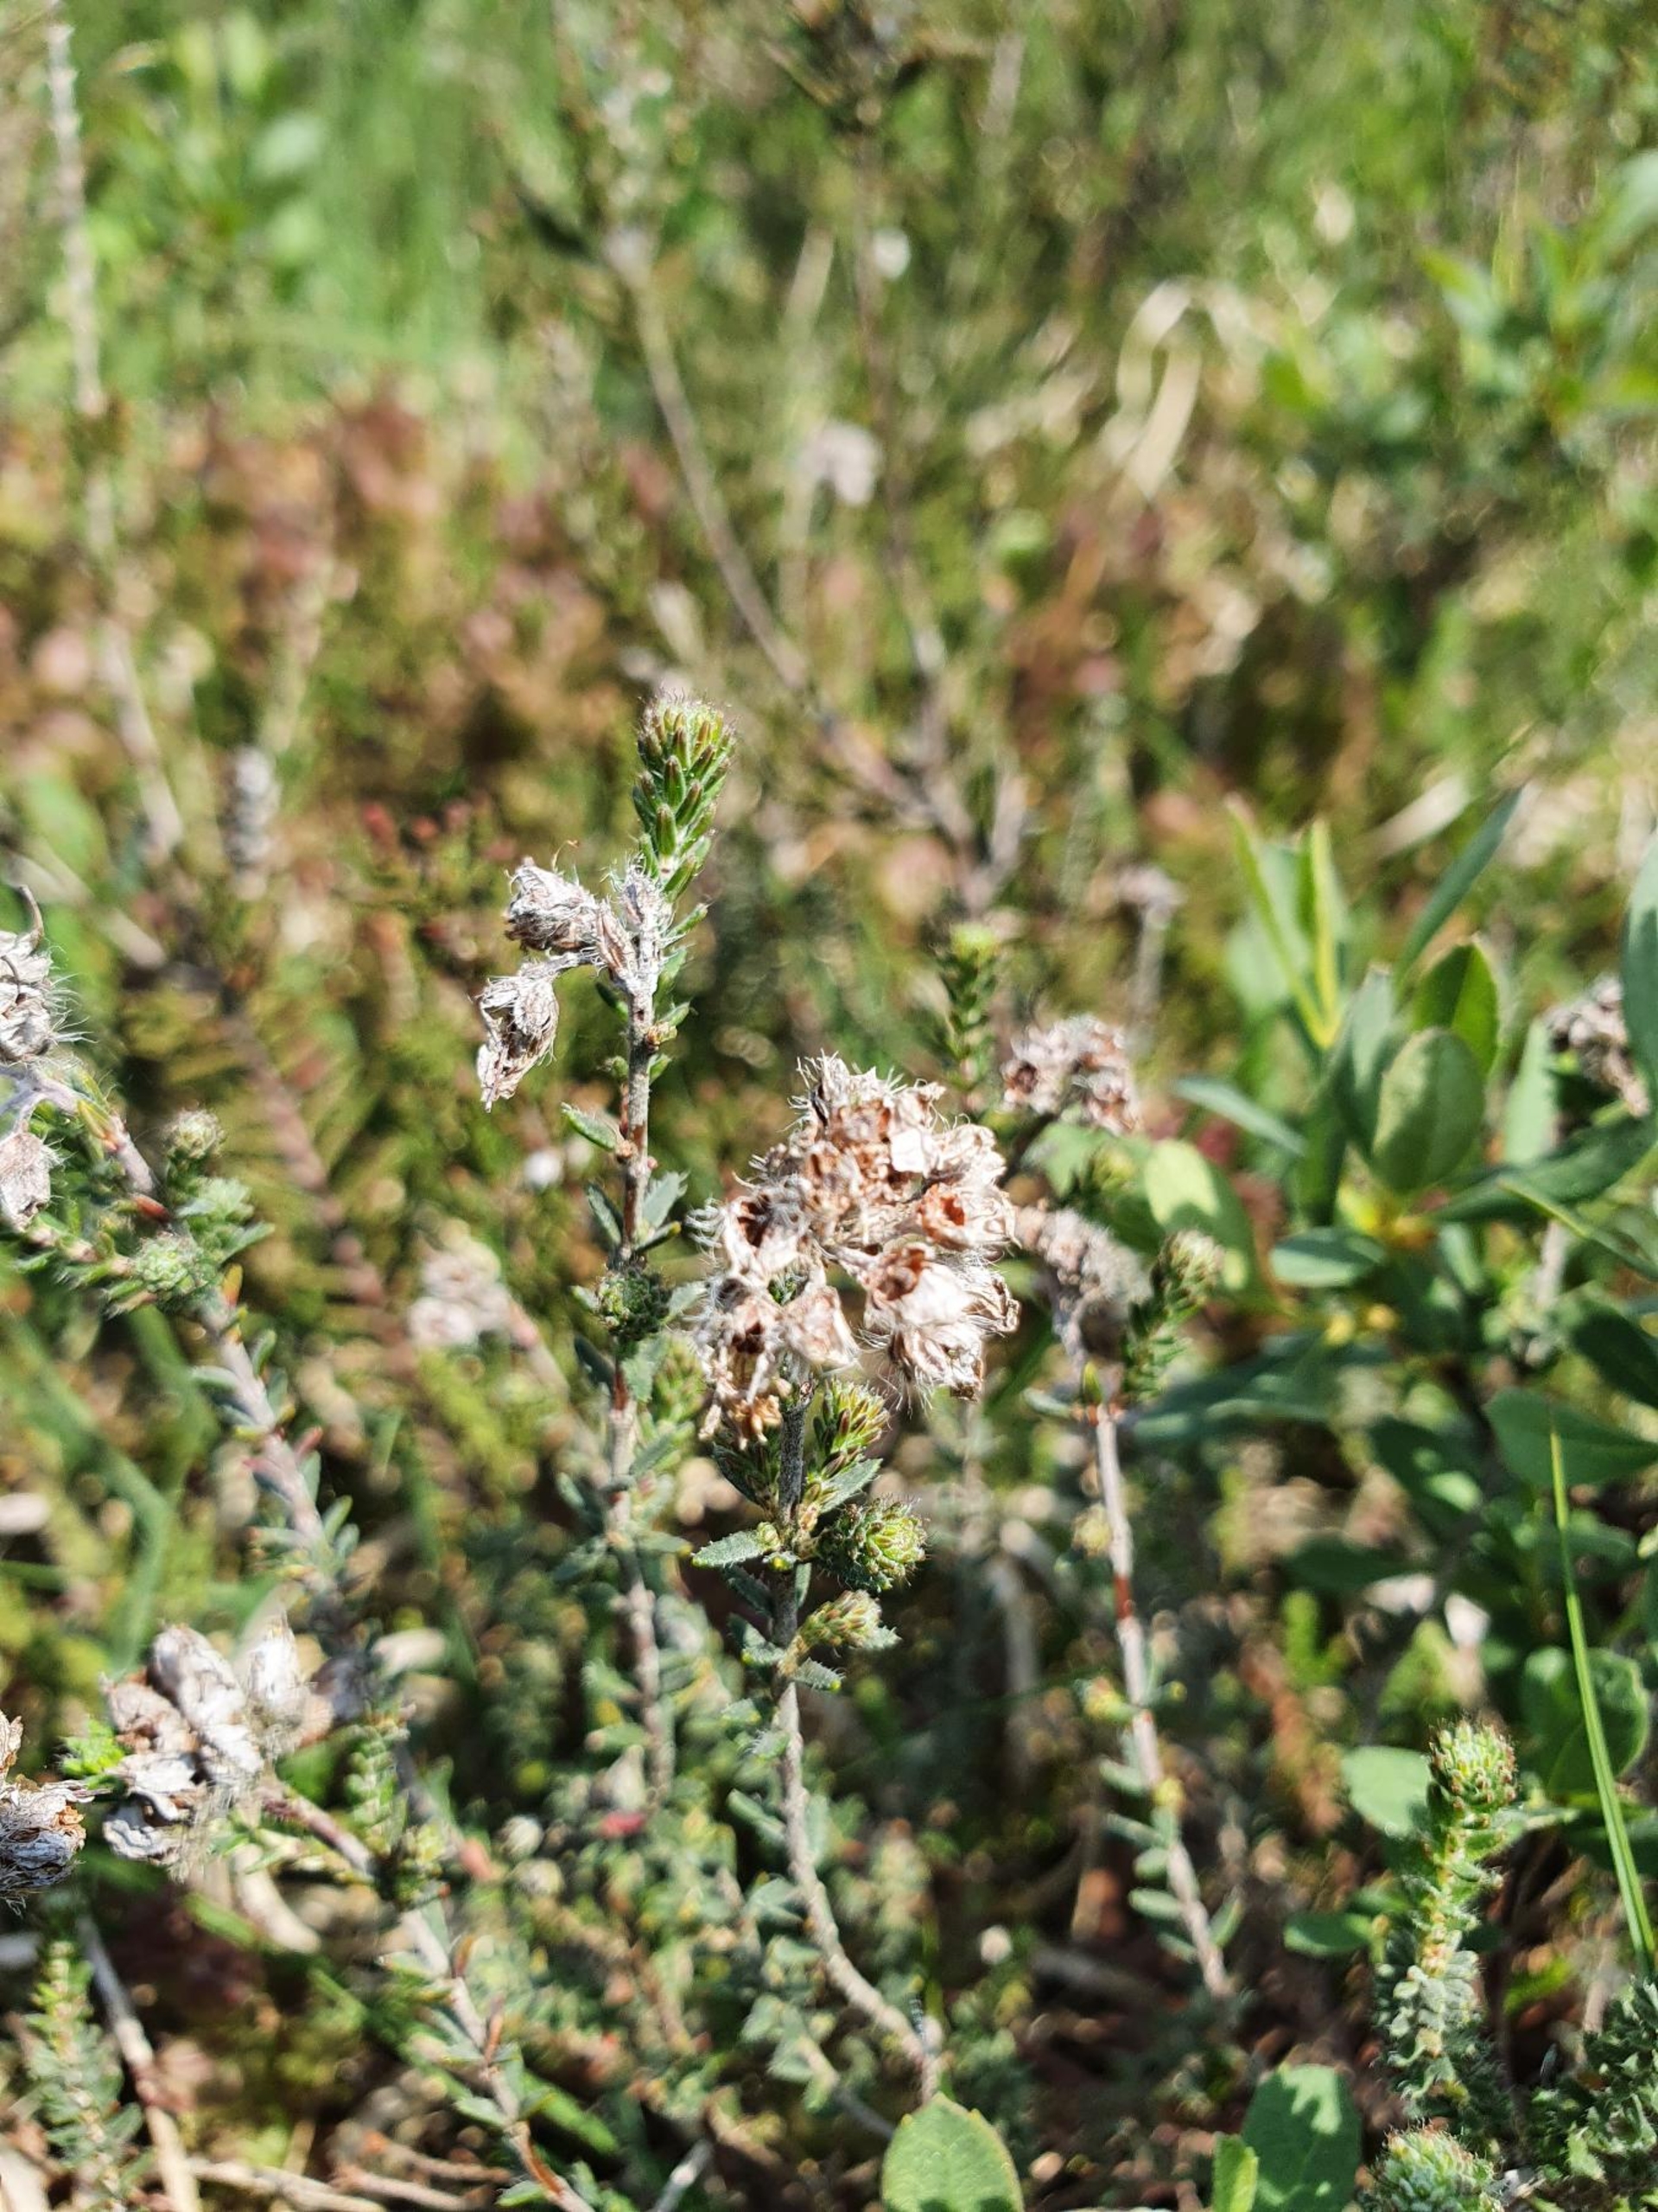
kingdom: Plantae
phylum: Tracheophyta
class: Magnoliopsida
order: Ericales
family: Ericaceae
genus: Erica
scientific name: Erica tetralix
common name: Klokkelyng
